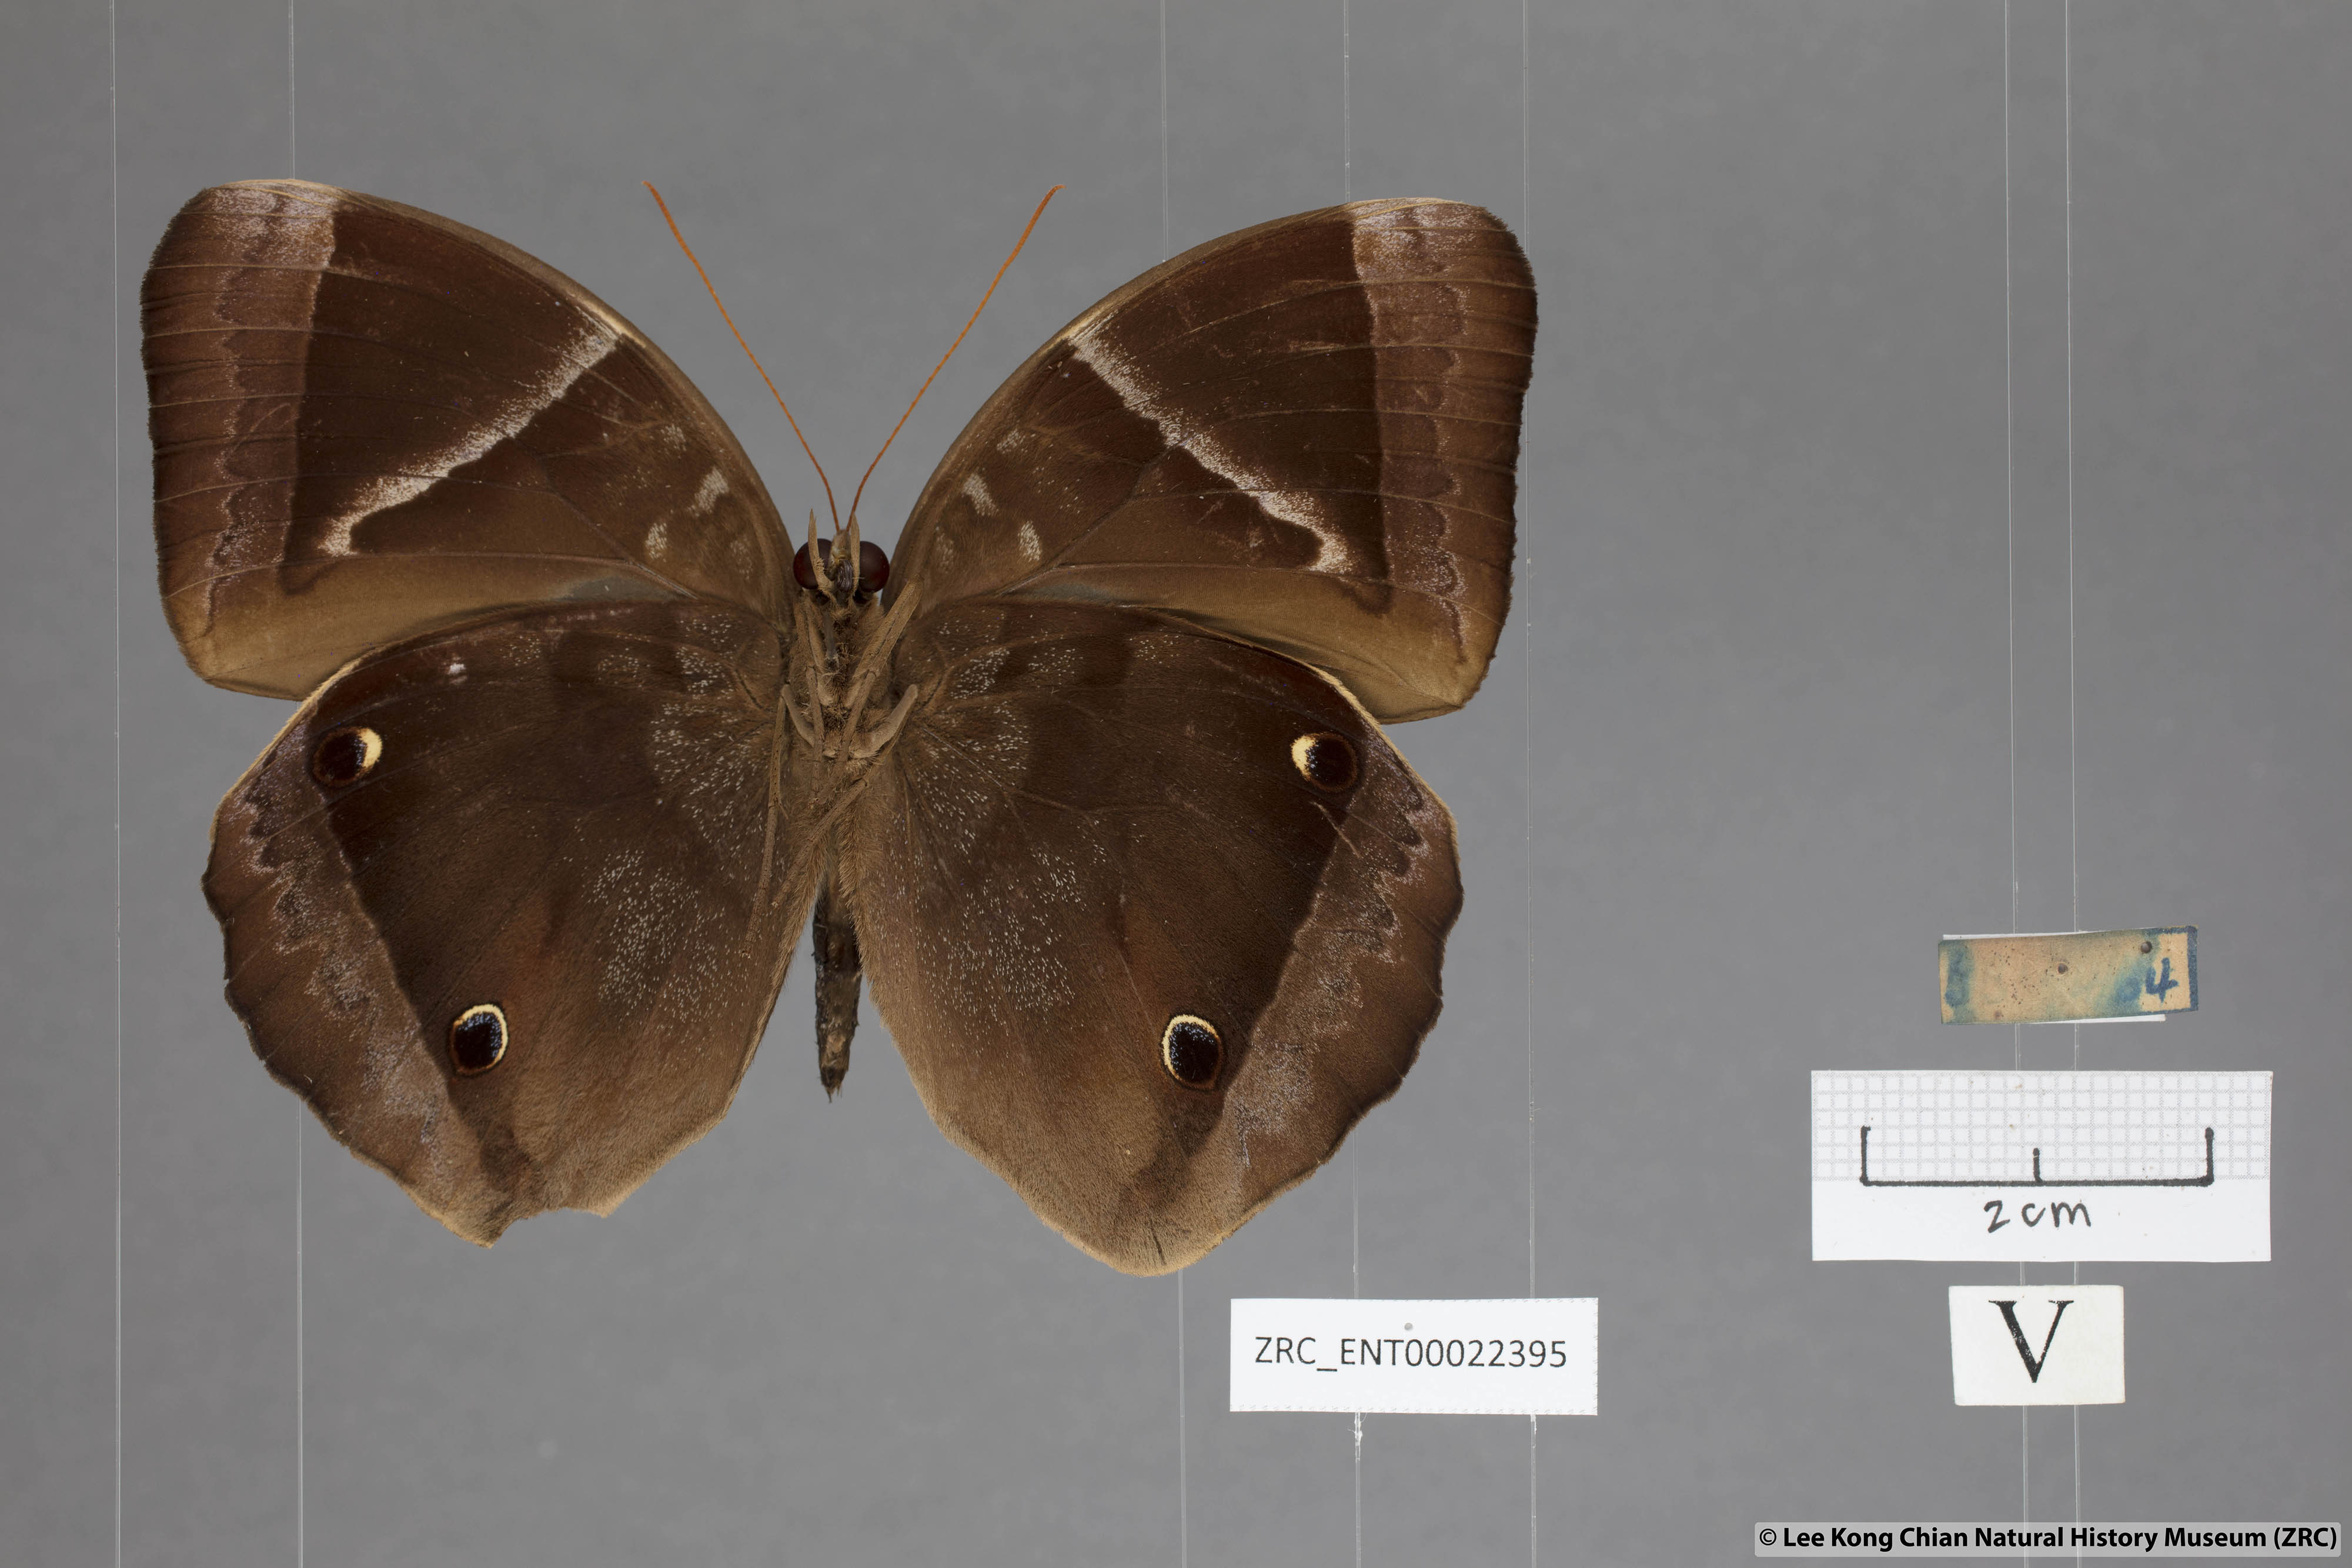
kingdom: Animalia
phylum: Arthropoda
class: Insecta
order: Lepidoptera
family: Nymphalidae
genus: Thaumantis
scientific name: Thaumantis klugius
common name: Dark blue jungle glory
